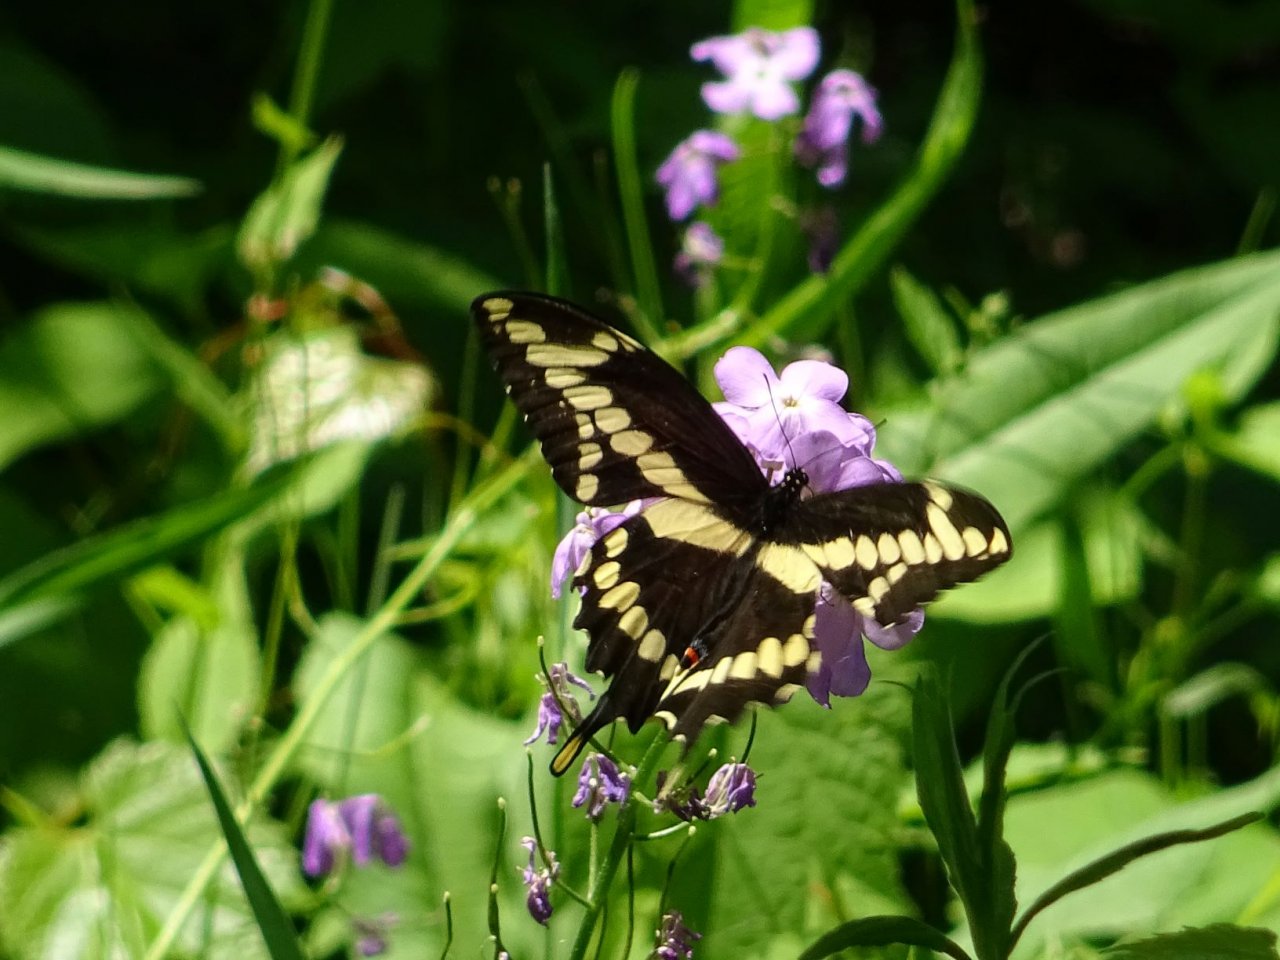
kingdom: Animalia
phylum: Arthropoda
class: Insecta
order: Lepidoptera
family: Papilionidae
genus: Papilio
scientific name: Papilio cresphontes
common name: Eastern Giant Swallowtail
